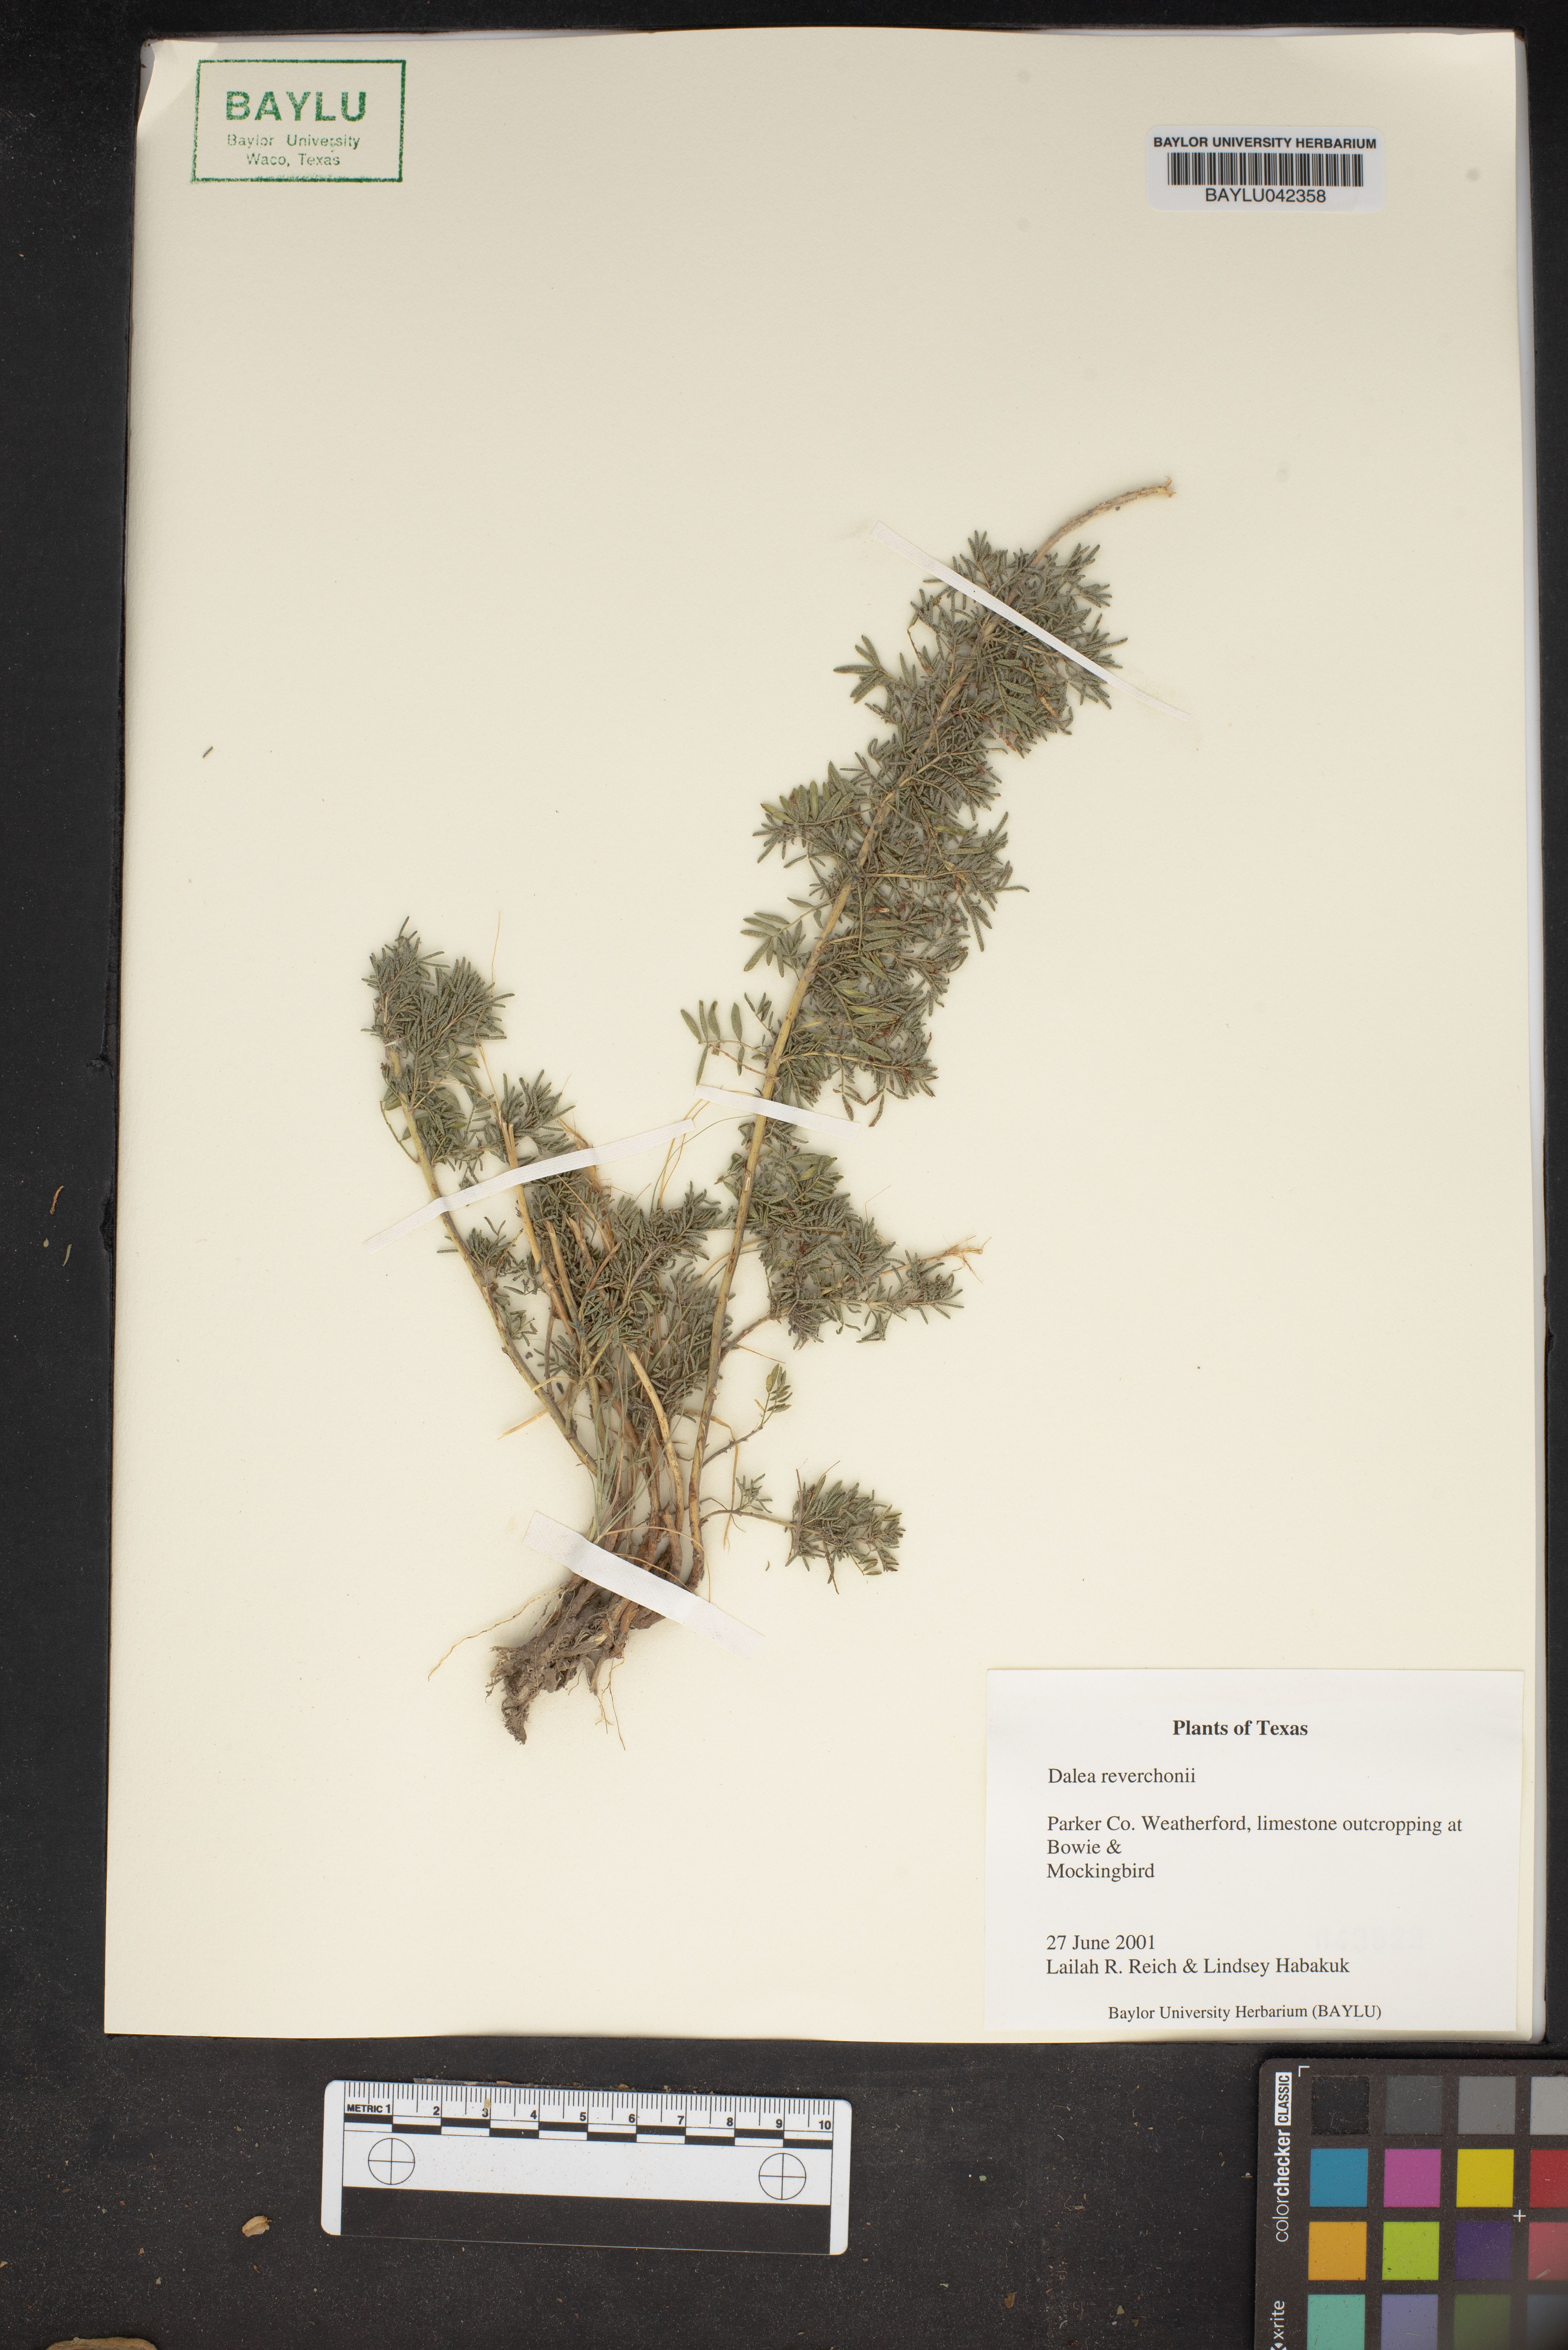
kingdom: Plantae
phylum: Tracheophyta
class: Magnoliopsida
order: Fabales
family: Fabaceae
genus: Dalea
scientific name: Dalea reverchonii
